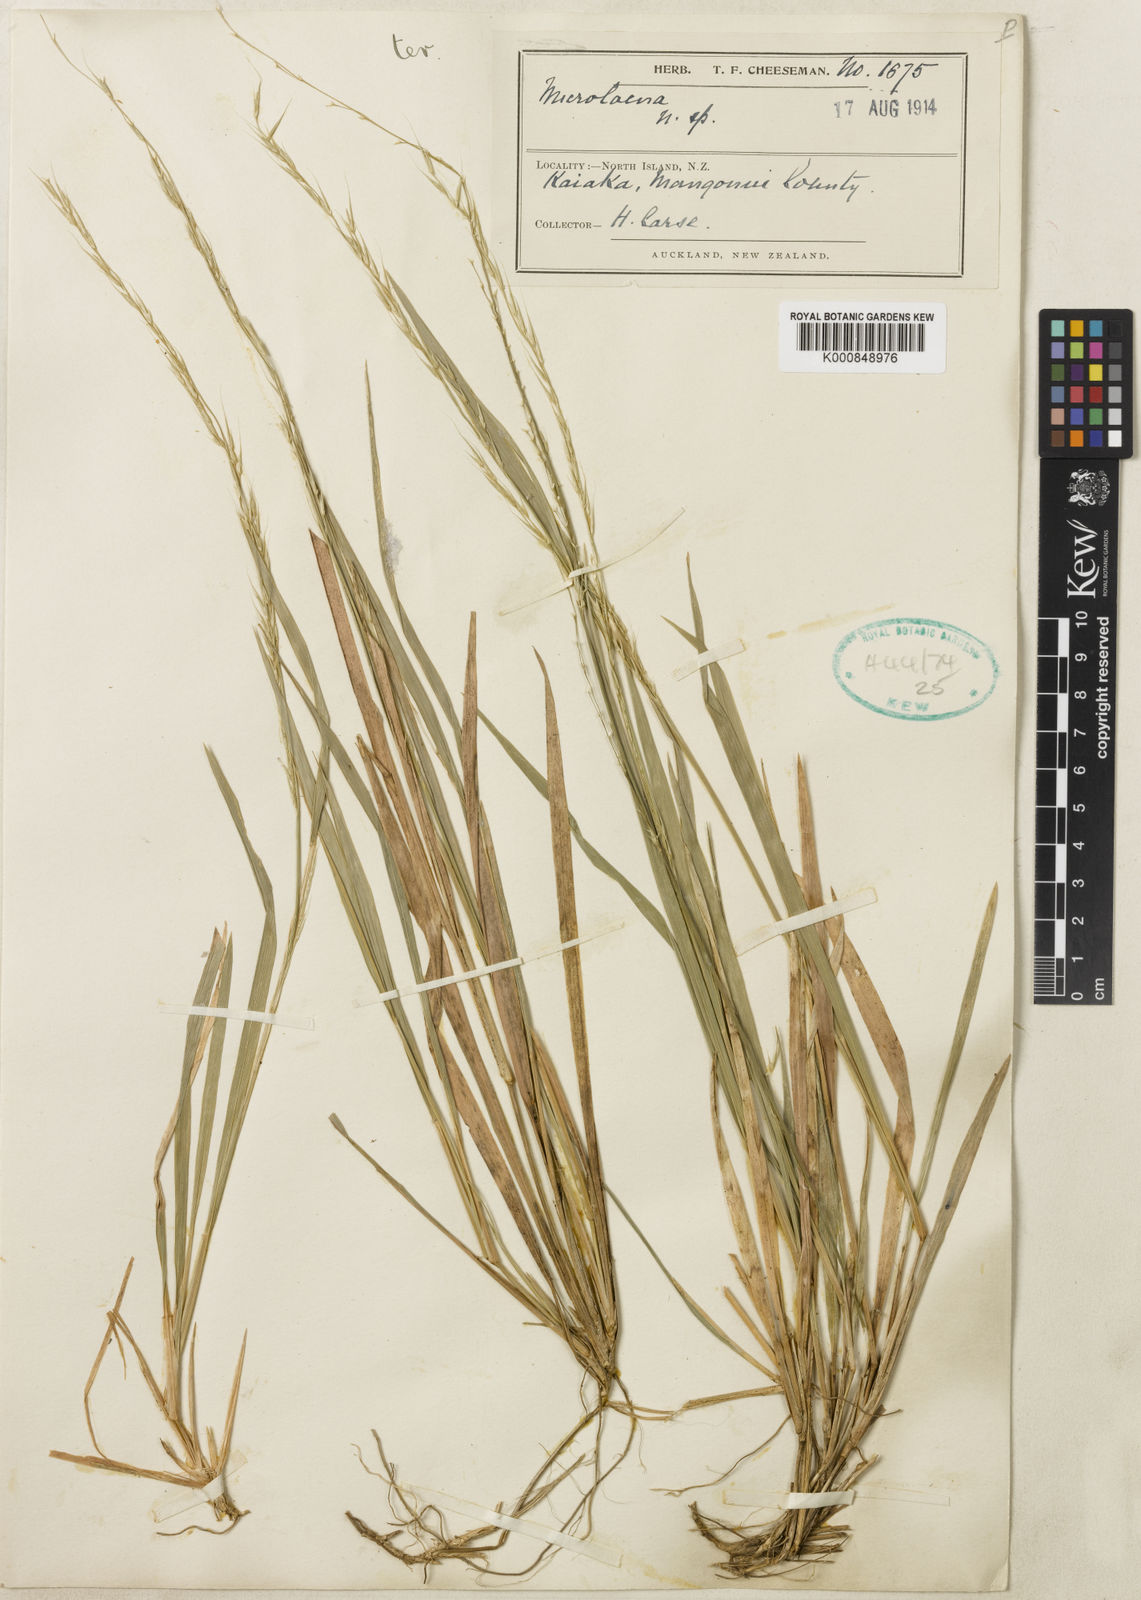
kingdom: Plantae
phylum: Tracheophyta
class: Liliopsida
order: Poales
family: Poaceae
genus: Ehrharta
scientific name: Ehrharta diplax
